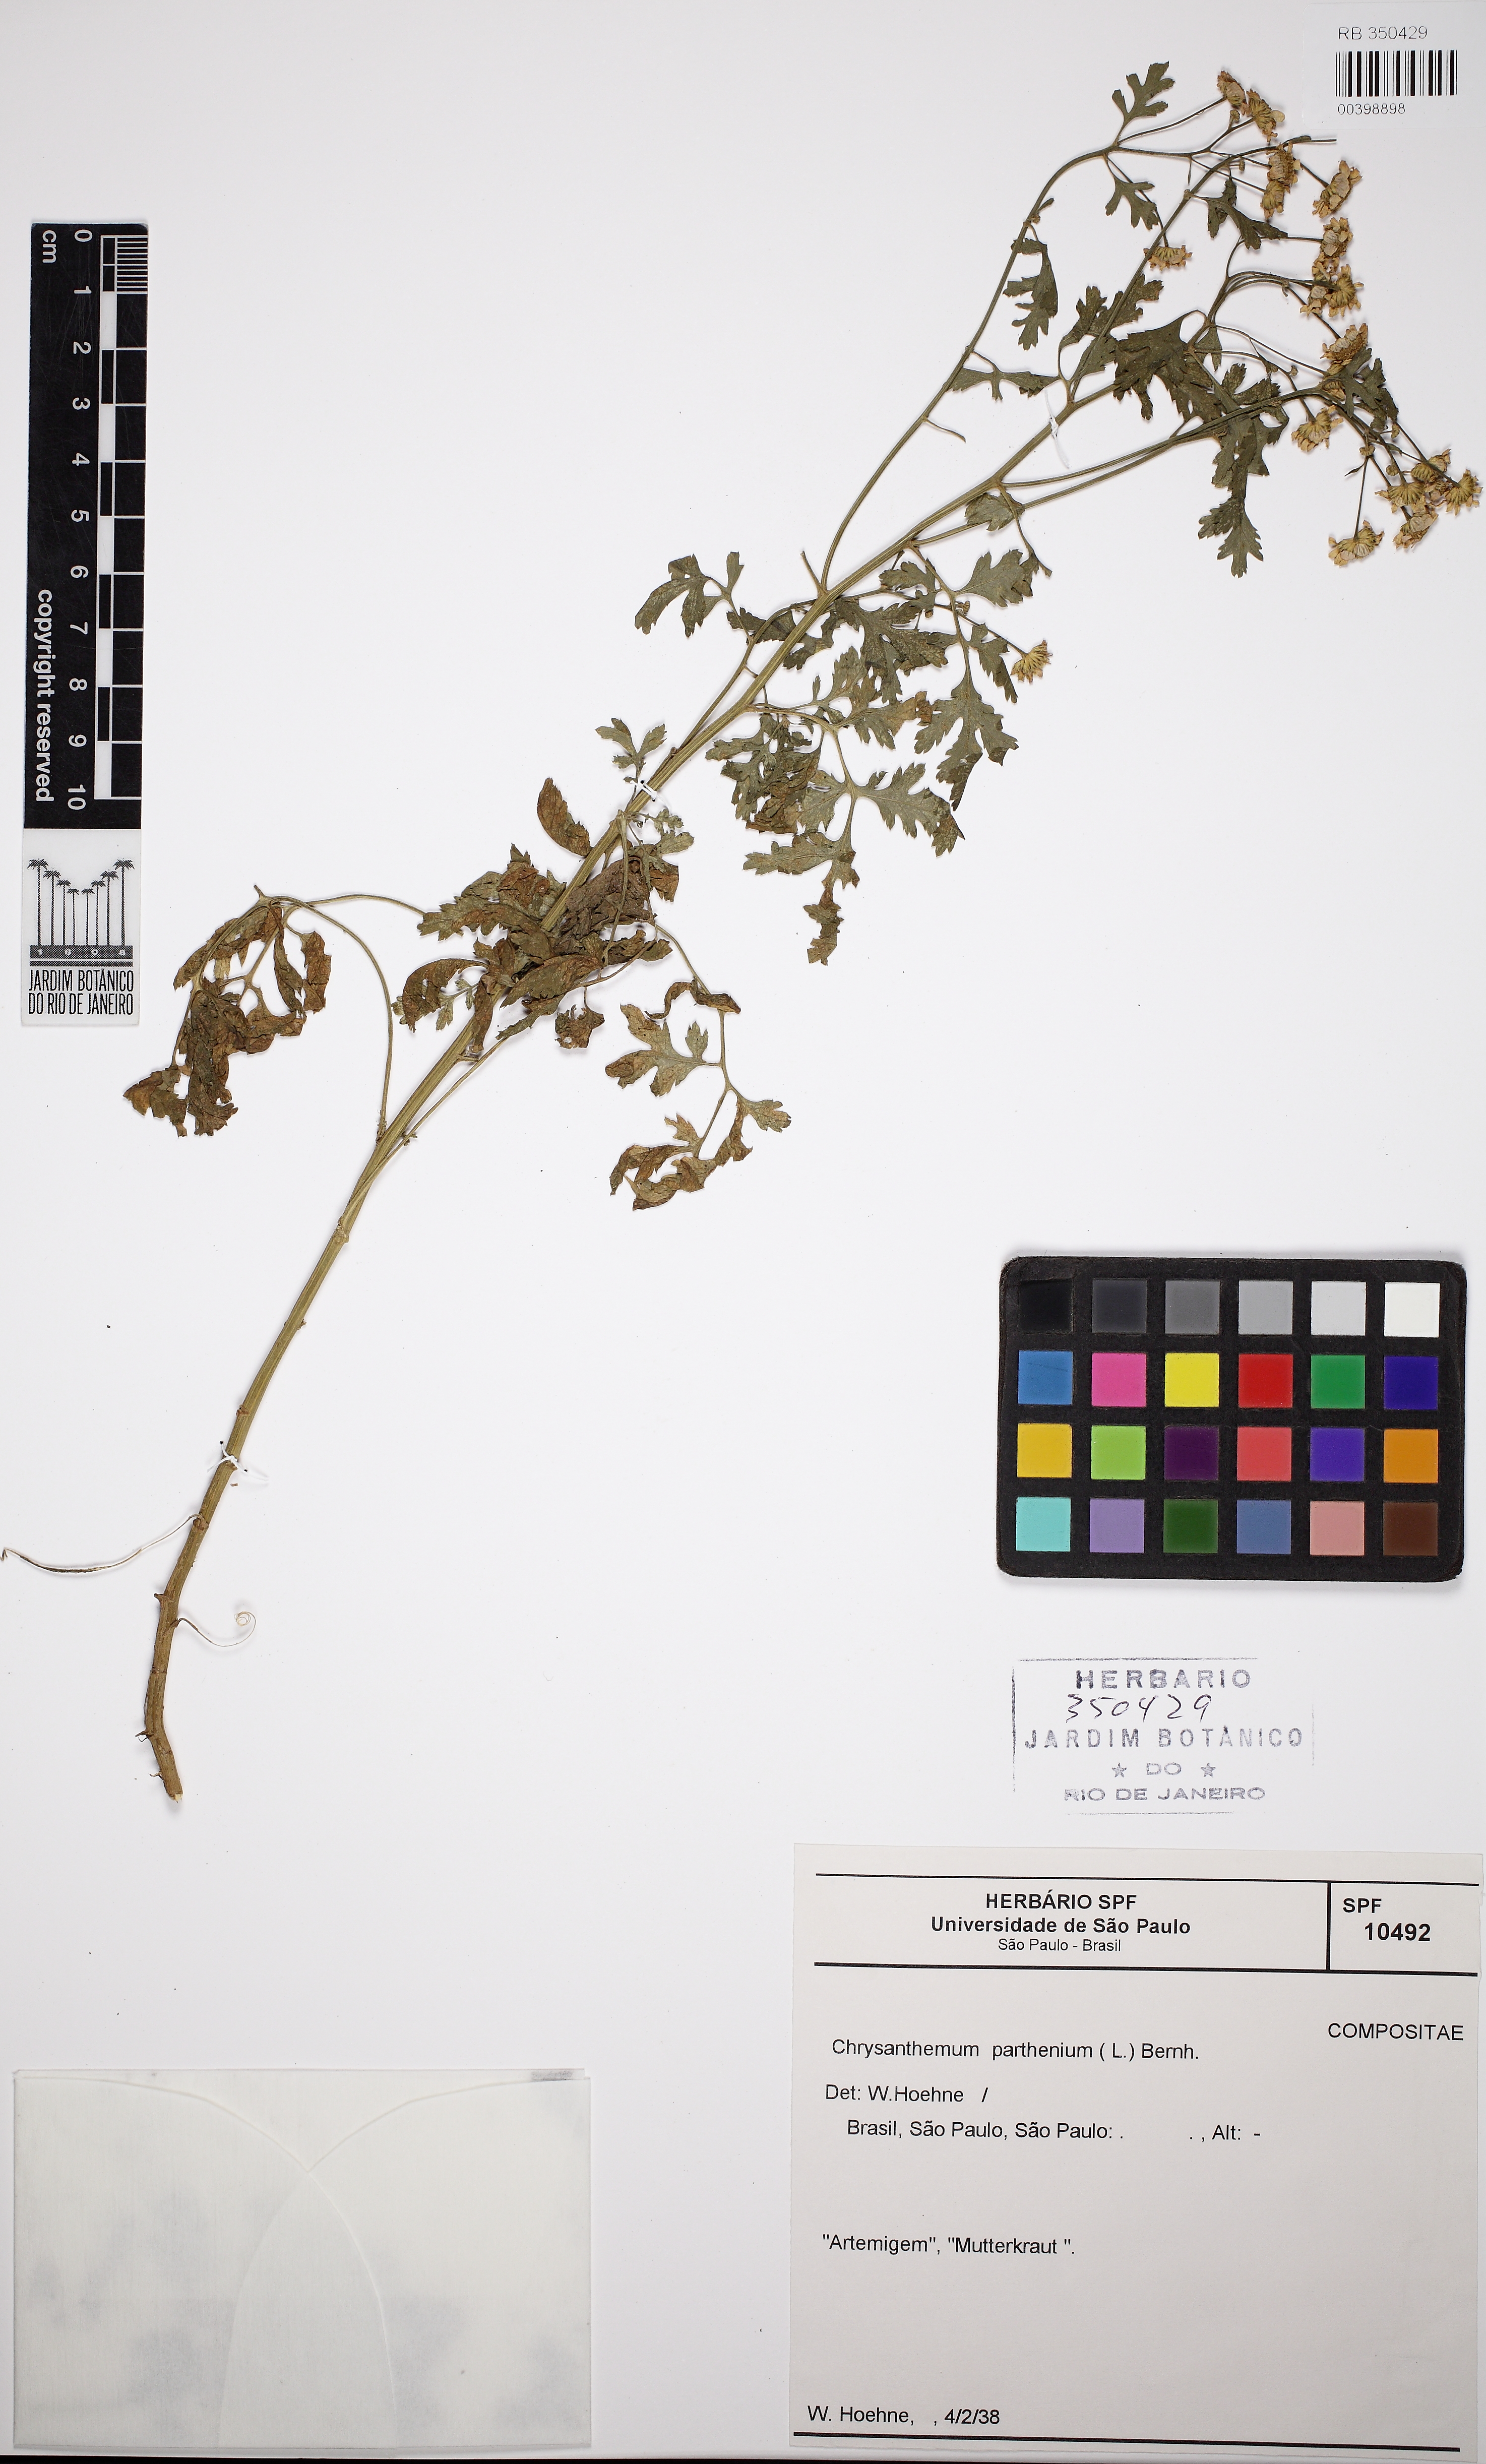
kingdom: Plantae
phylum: Tracheophyta
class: Magnoliopsida
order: Asterales
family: Asteraceae
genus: Tanacetum
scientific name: Tanacetum parthenium
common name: Feverfew
